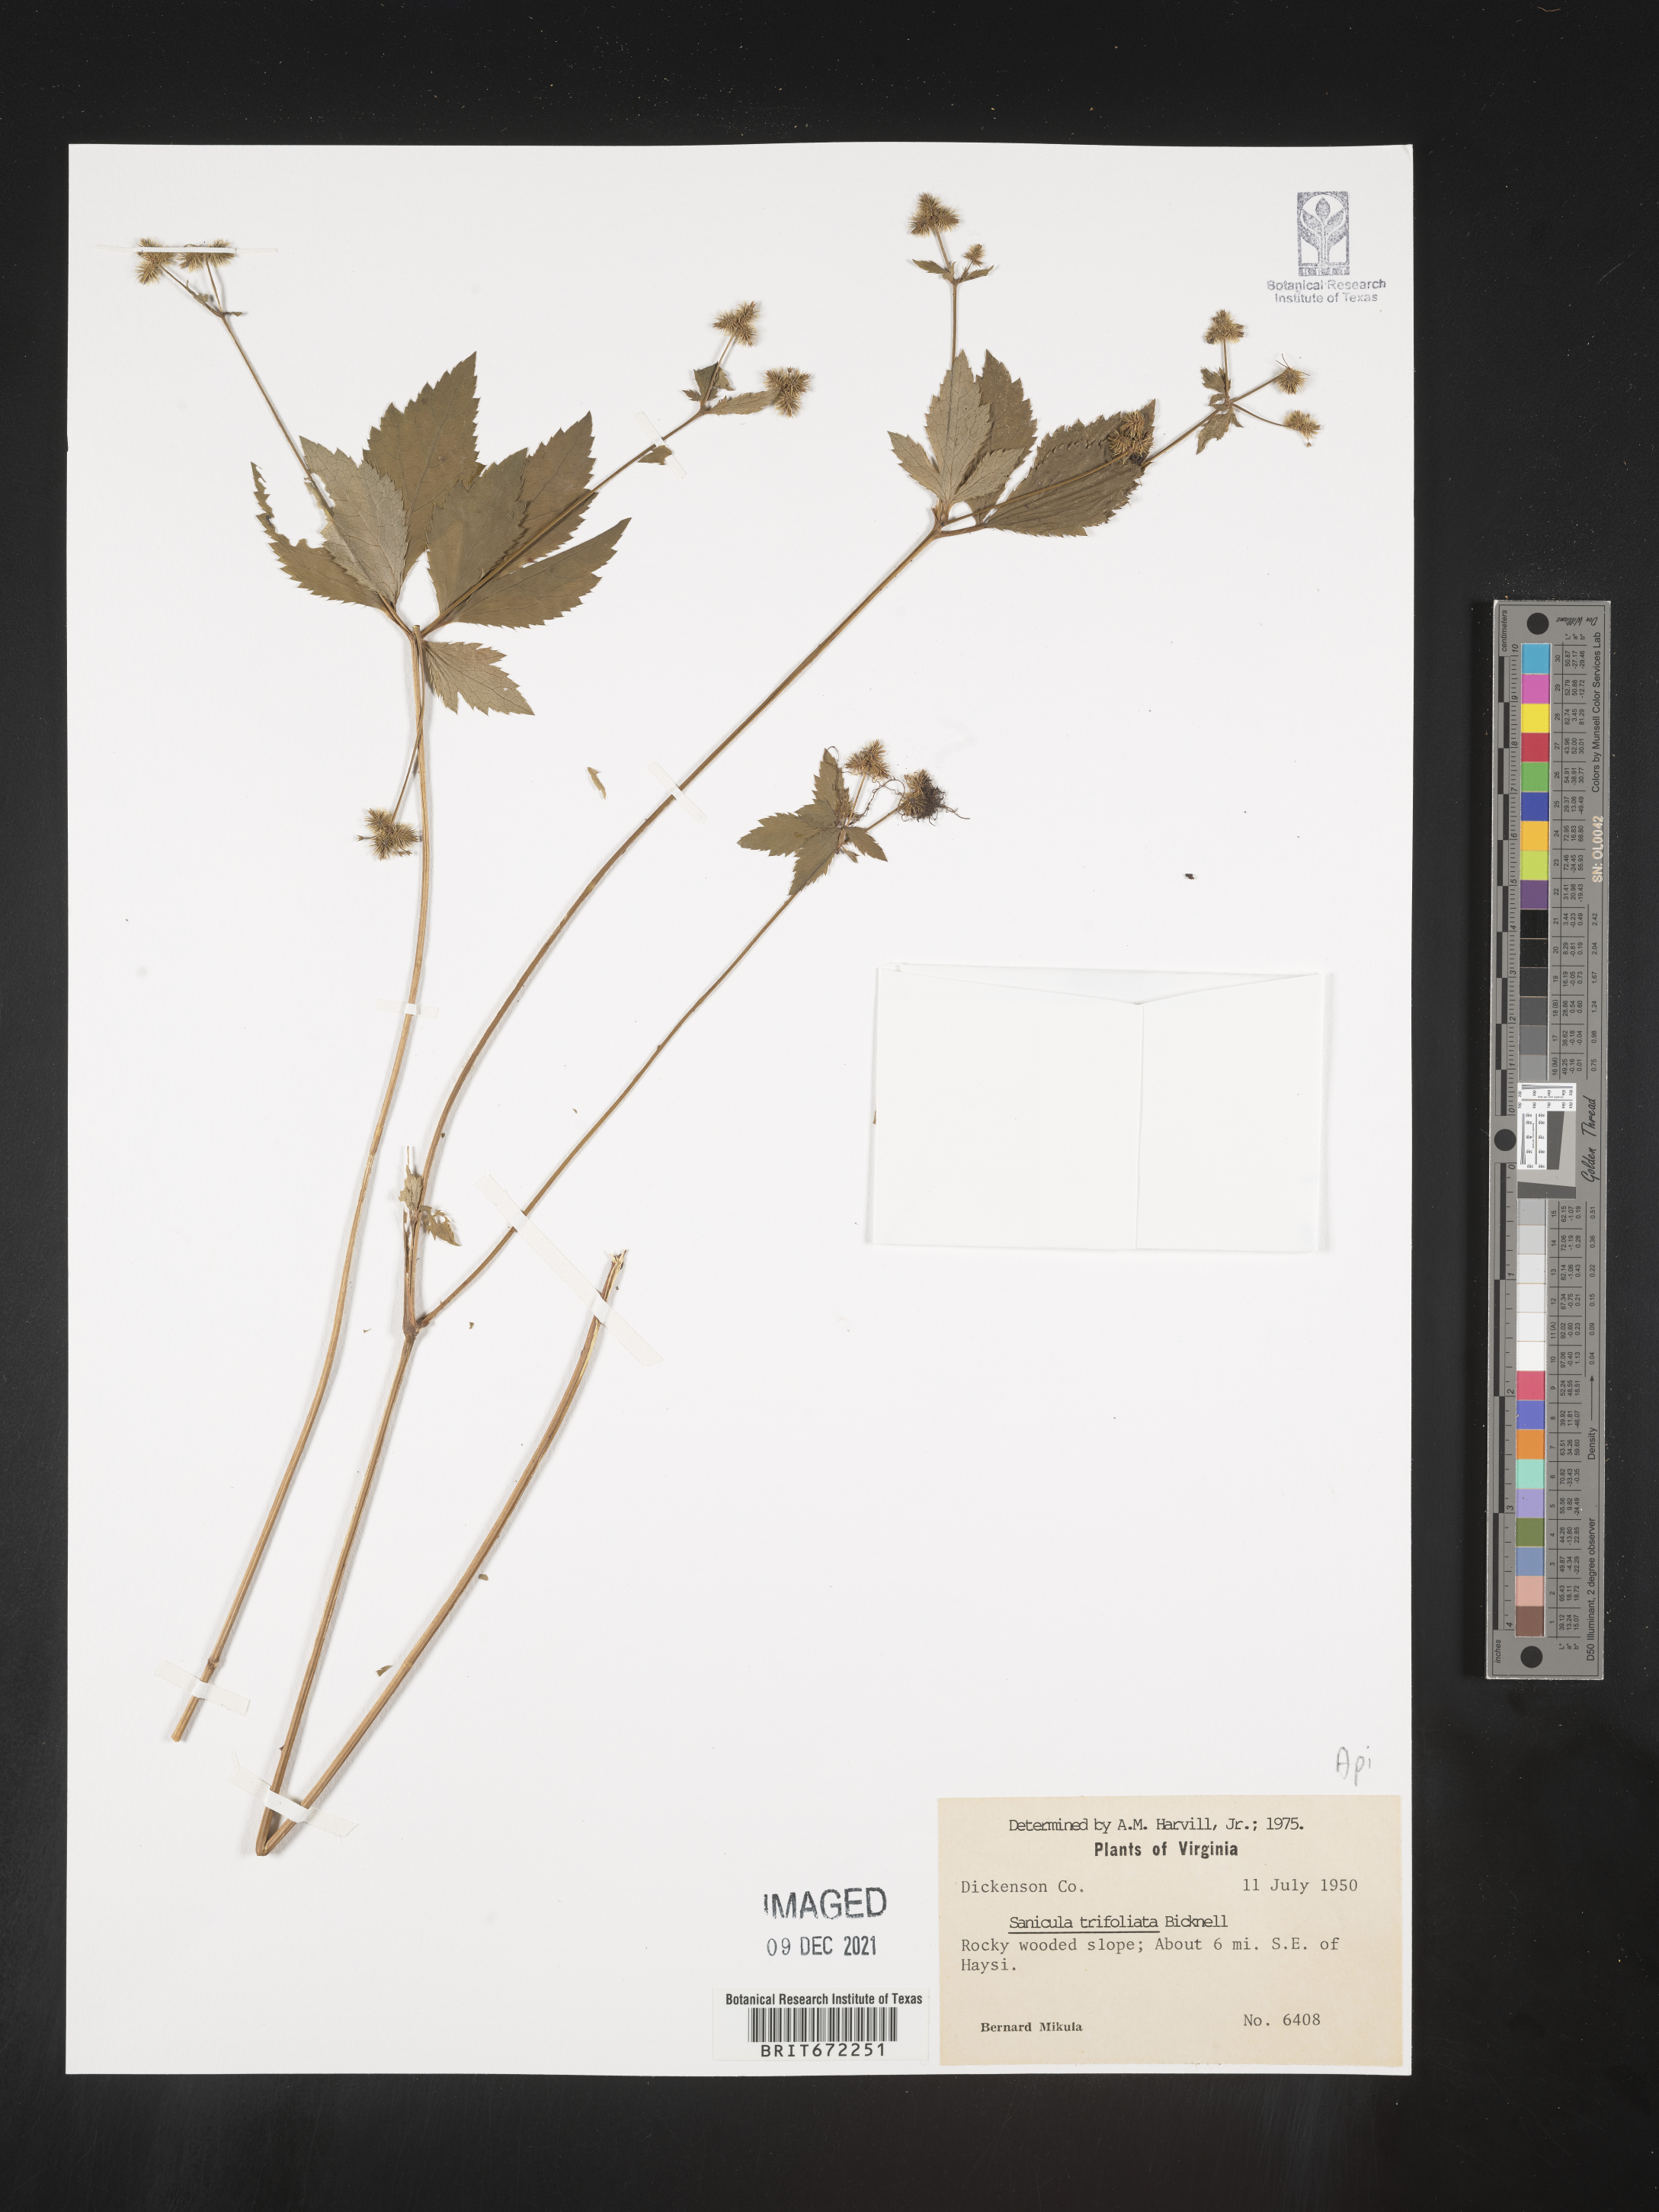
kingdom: Plantae
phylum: Tracheophyta
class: Magnoliopsida
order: Apiales
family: Apiaceae
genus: Sanicula
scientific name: Sanicula
